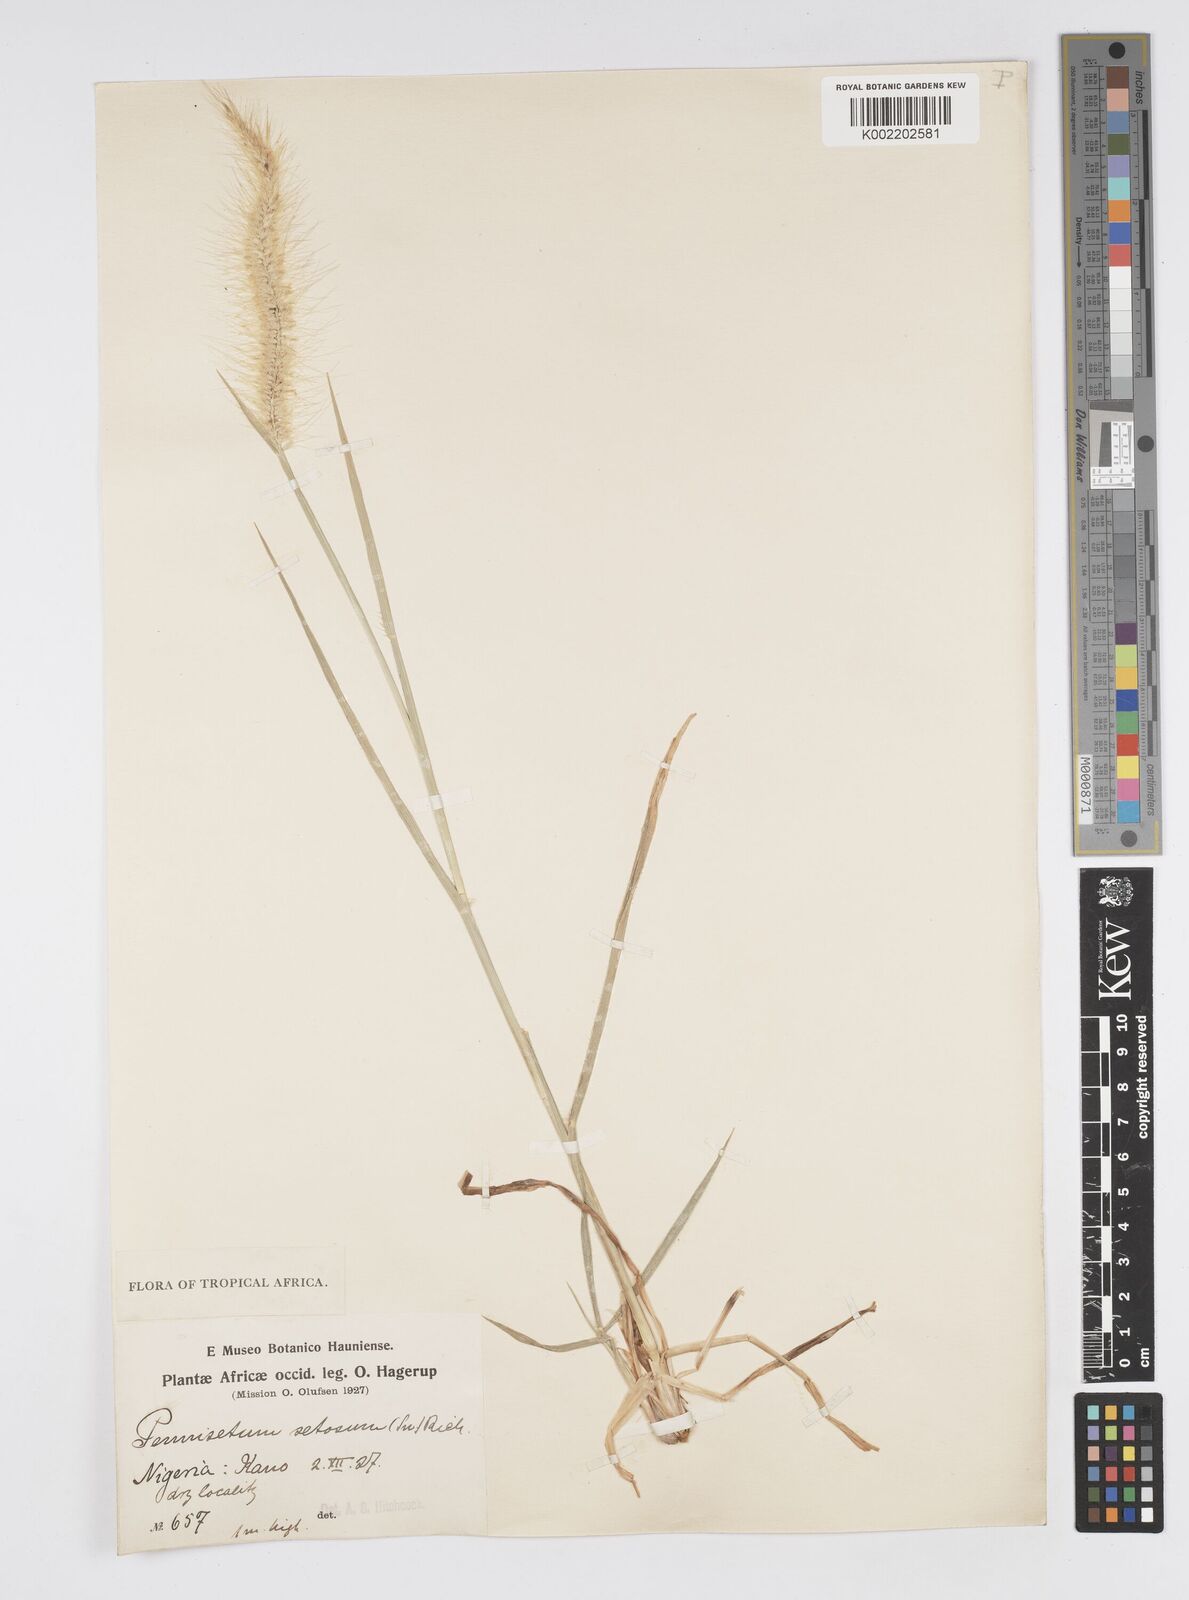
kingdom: Plantae
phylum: Tracheophyta
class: Liliopsida
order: Poales
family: Poaceae
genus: Setaria
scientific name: Setaria parviflora
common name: Knotroot bristle-grass
